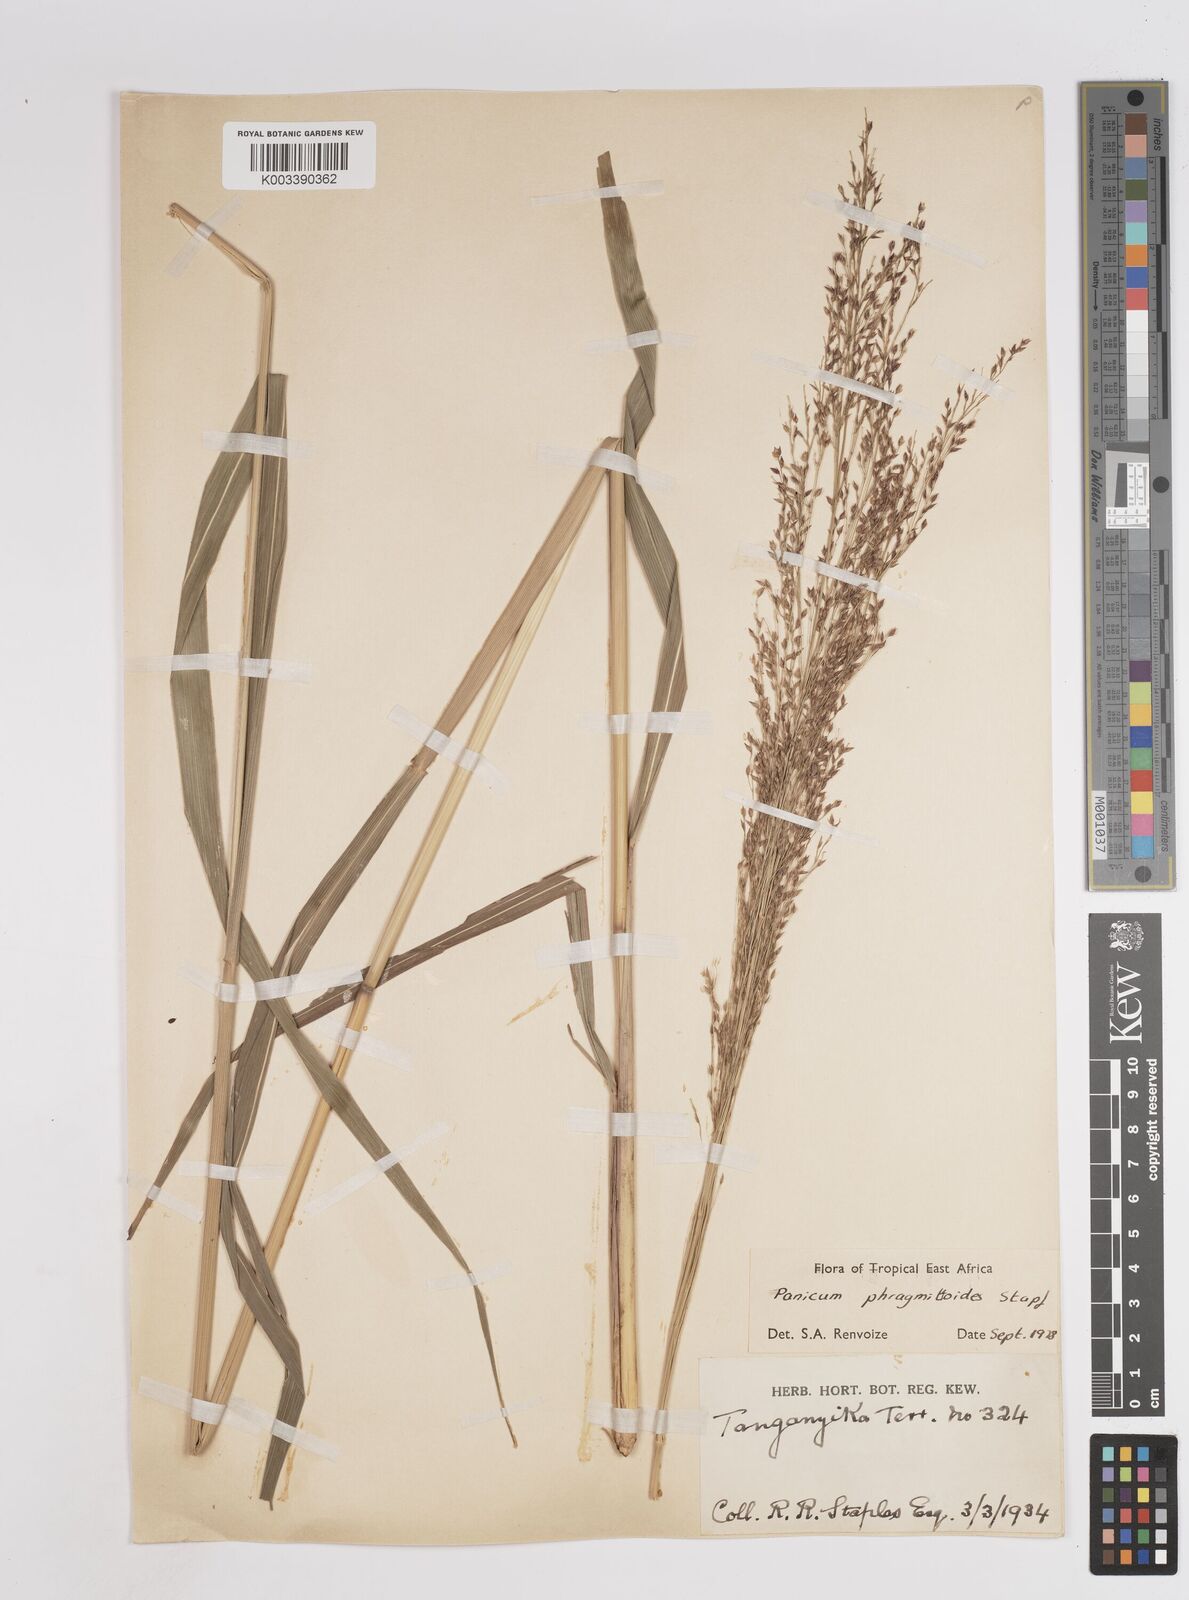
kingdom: Plantae
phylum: Tracheophyta
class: Liliopsida
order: Poales
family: Poaceae
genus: Panicum
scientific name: Panicum phragmitoides
